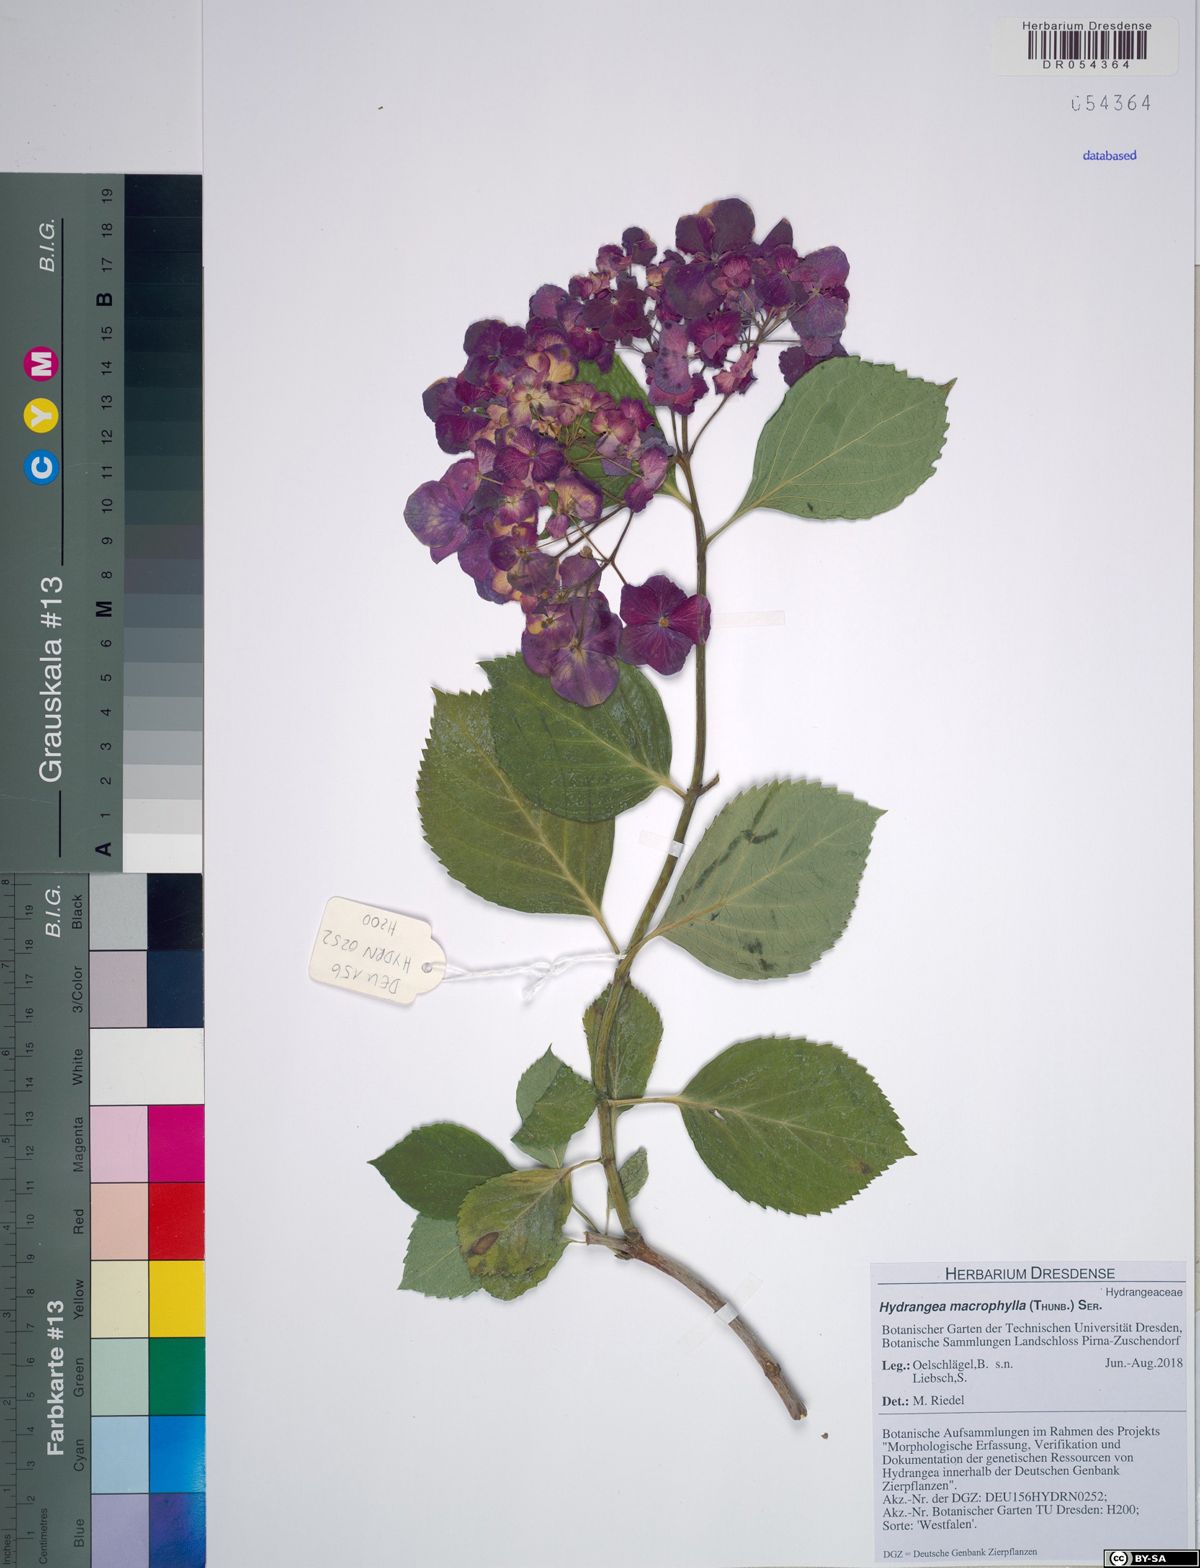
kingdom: Plantae
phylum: Tracheophyta
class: Magnoliopsida
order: Cornales
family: Hydrangeaceae
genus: Hydrangea
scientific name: Hydrangea macrophylla
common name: Hydrangea
